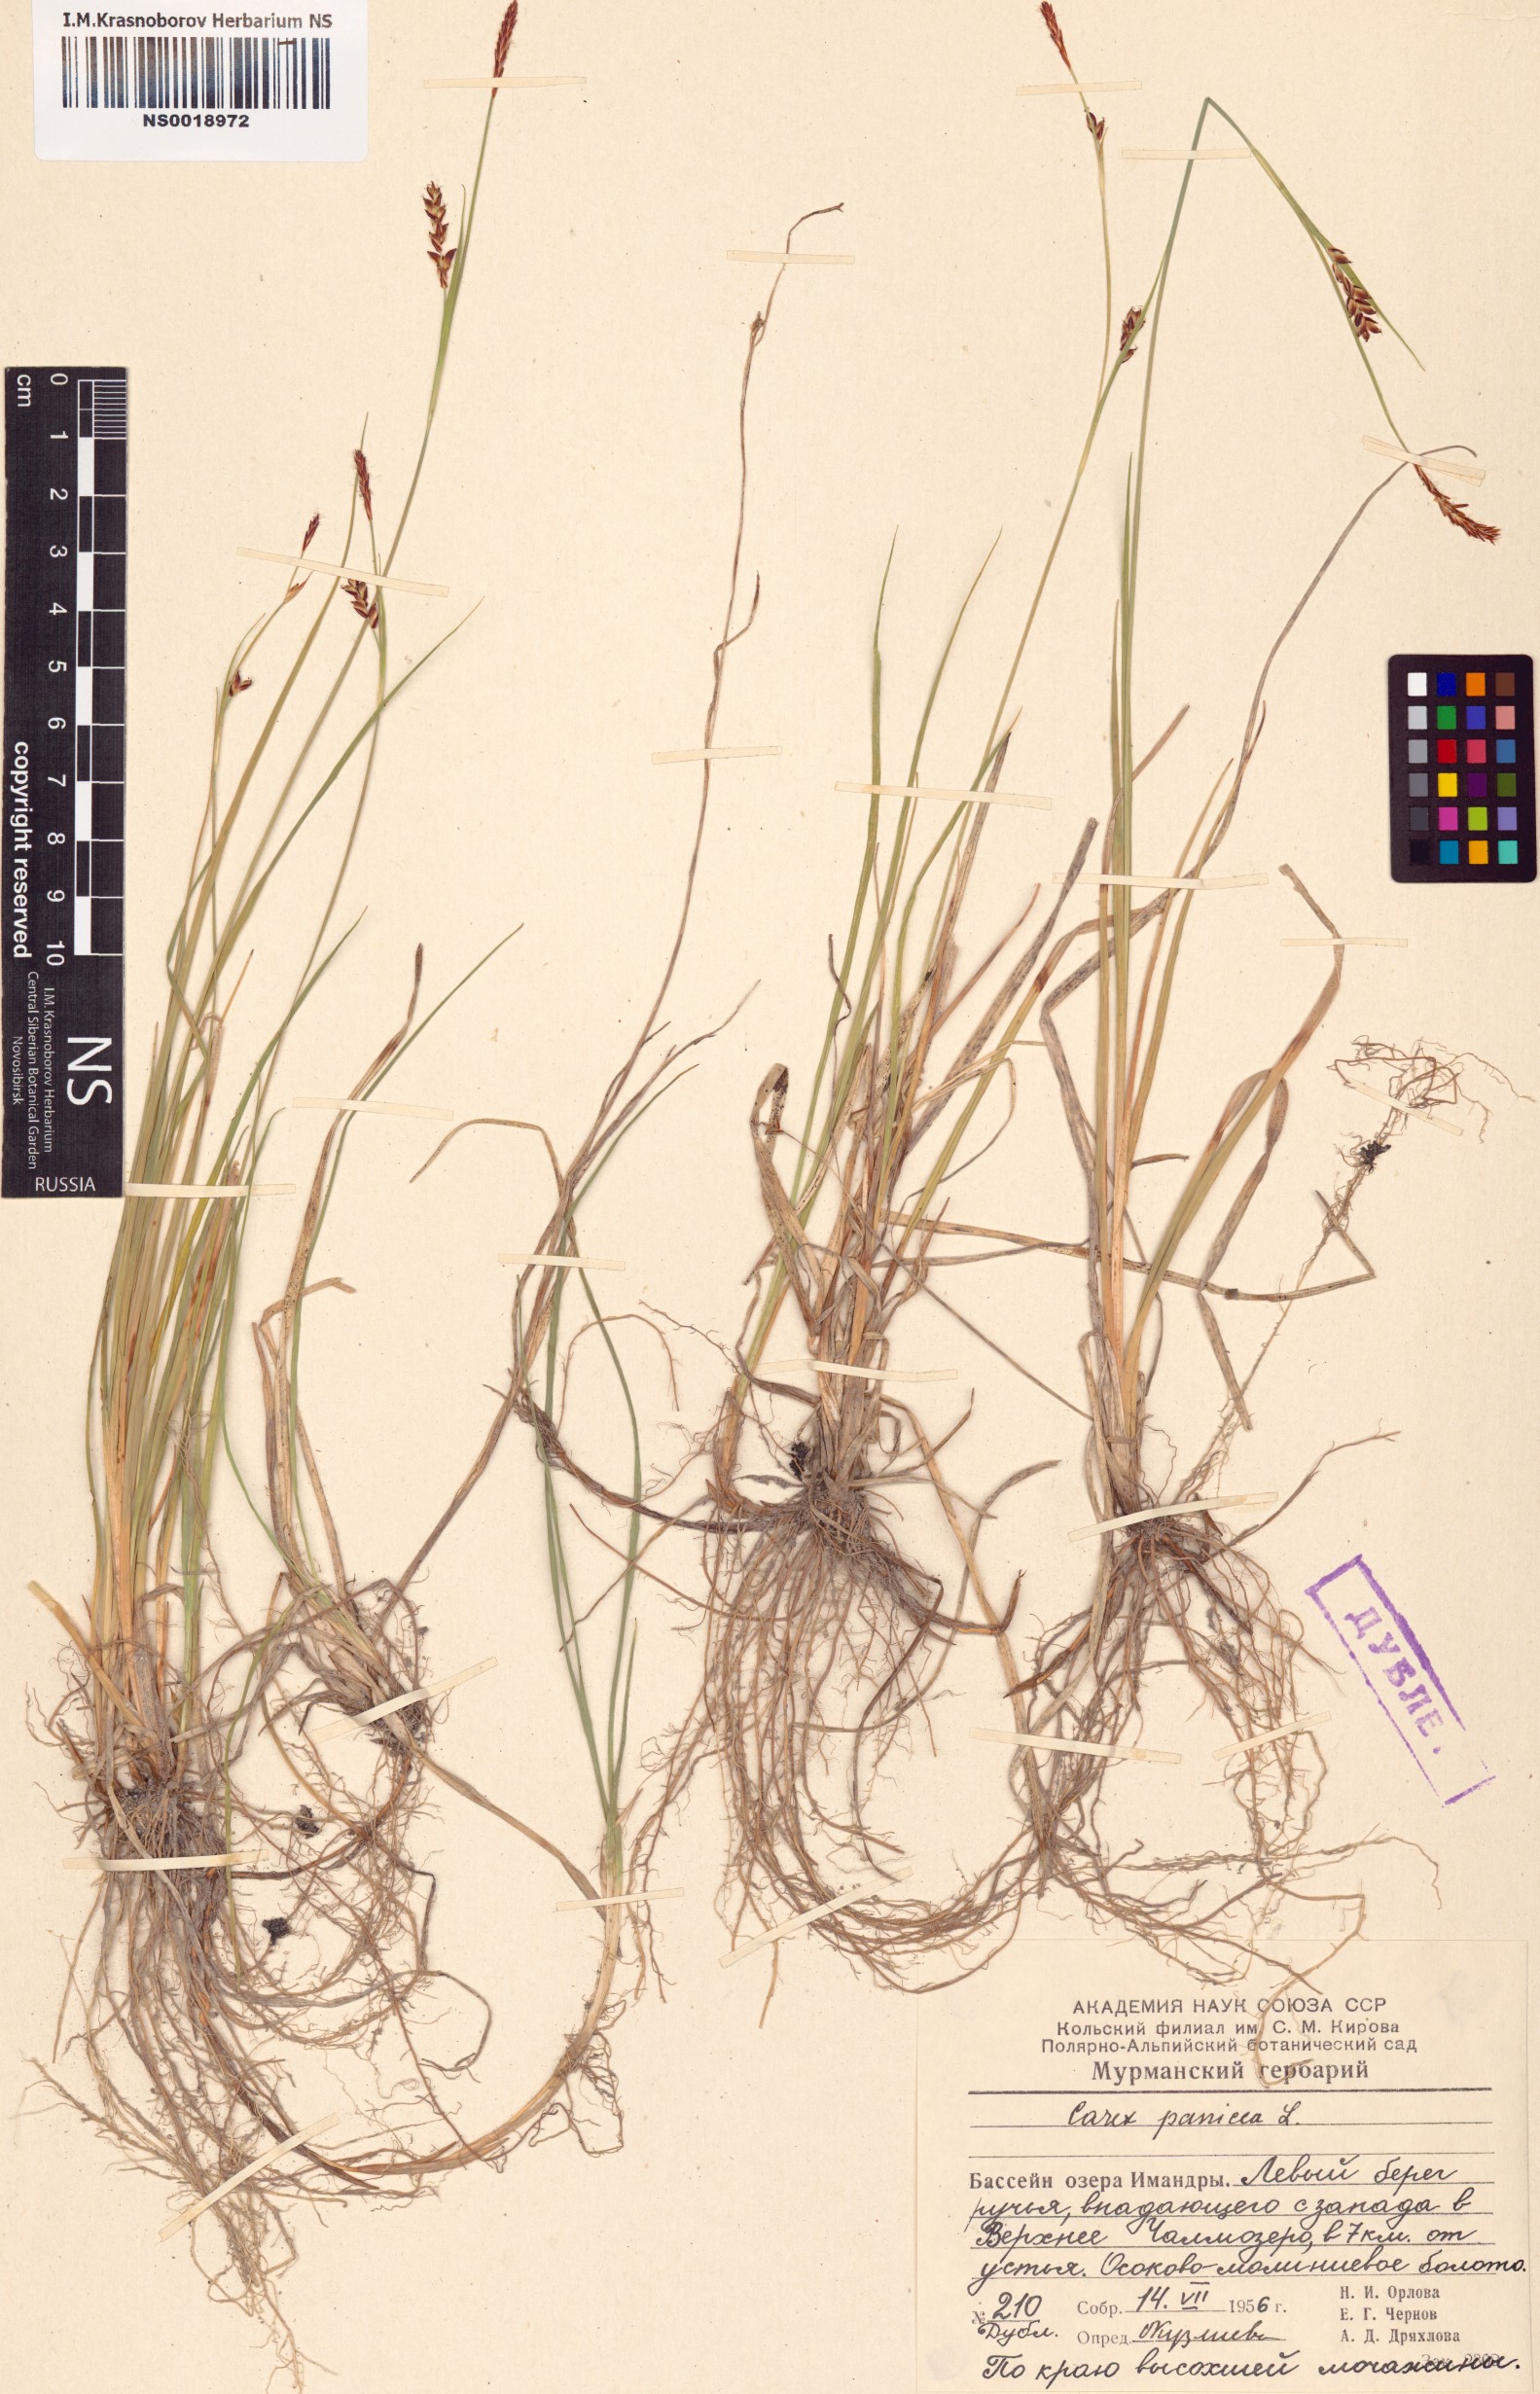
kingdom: Plantae
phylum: Tracheophyta
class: Liliopsida
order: Poales
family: Cyperaceae
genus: Carex
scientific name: Carex panicea
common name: Carnation sedge
